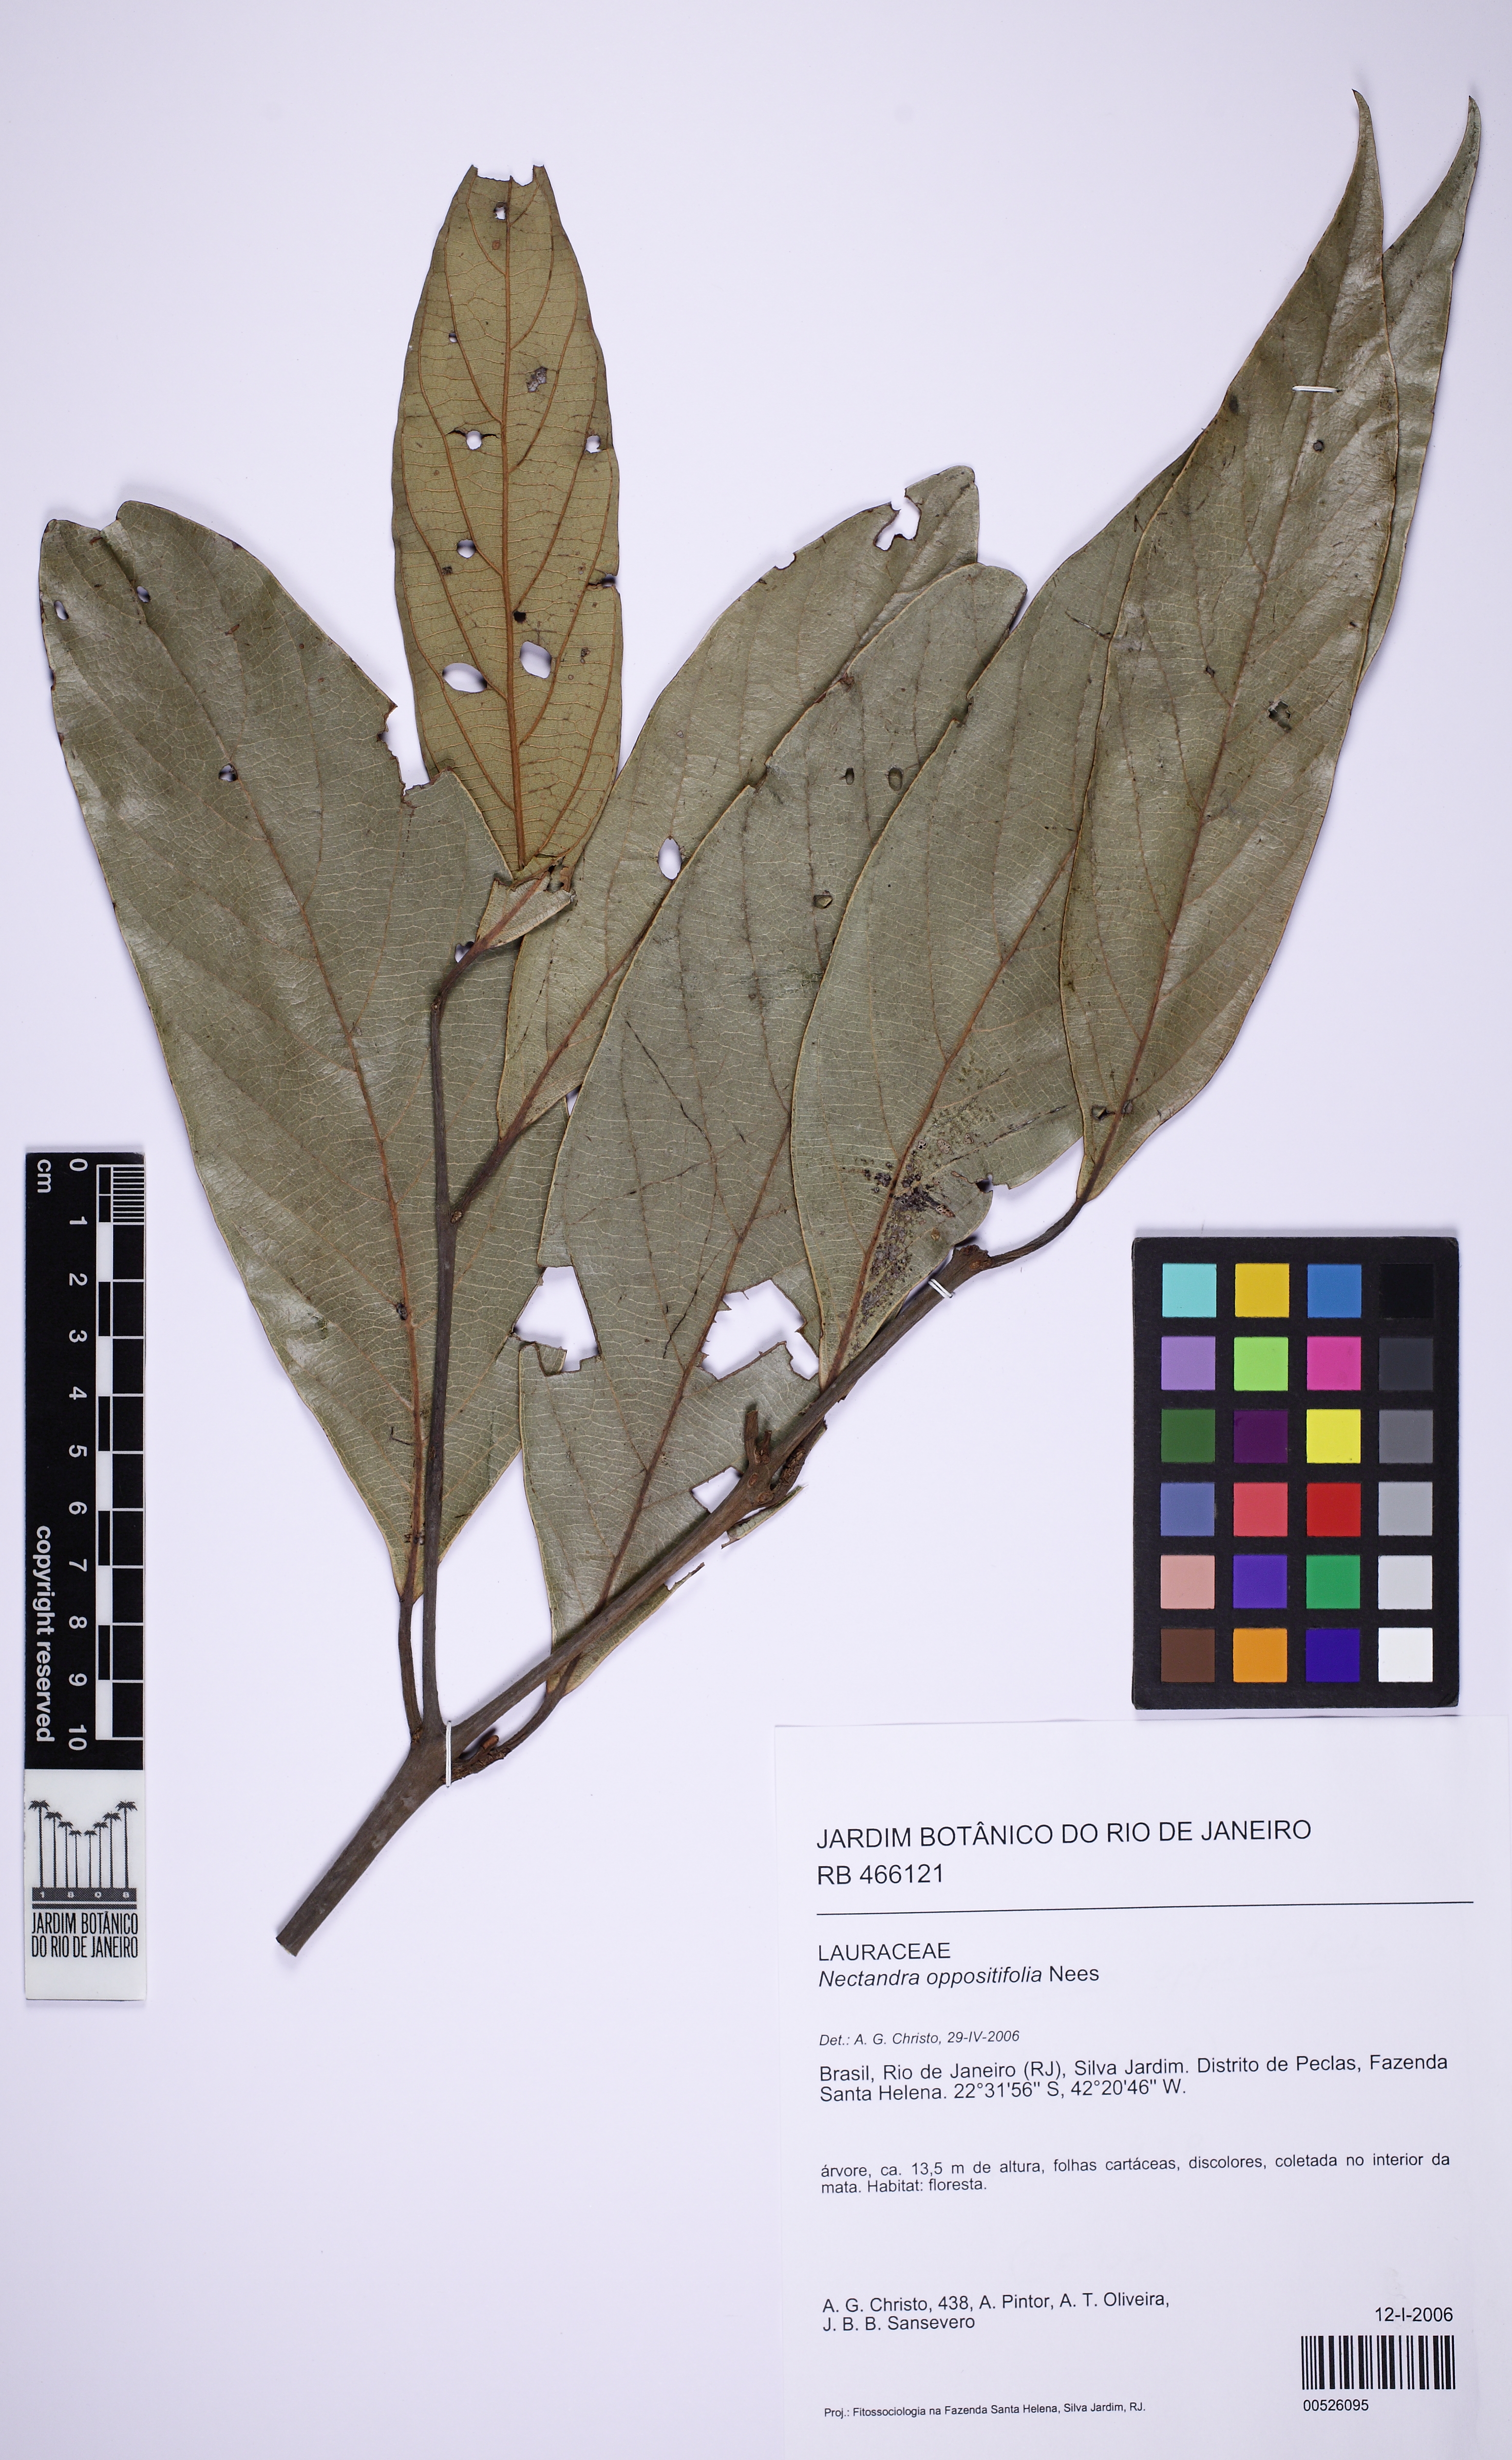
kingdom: Plantae
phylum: Tracheophyta
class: Magnoliopsida
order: Laurales
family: Lauraceae
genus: Nectandra
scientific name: Nectandra oppositifolia
